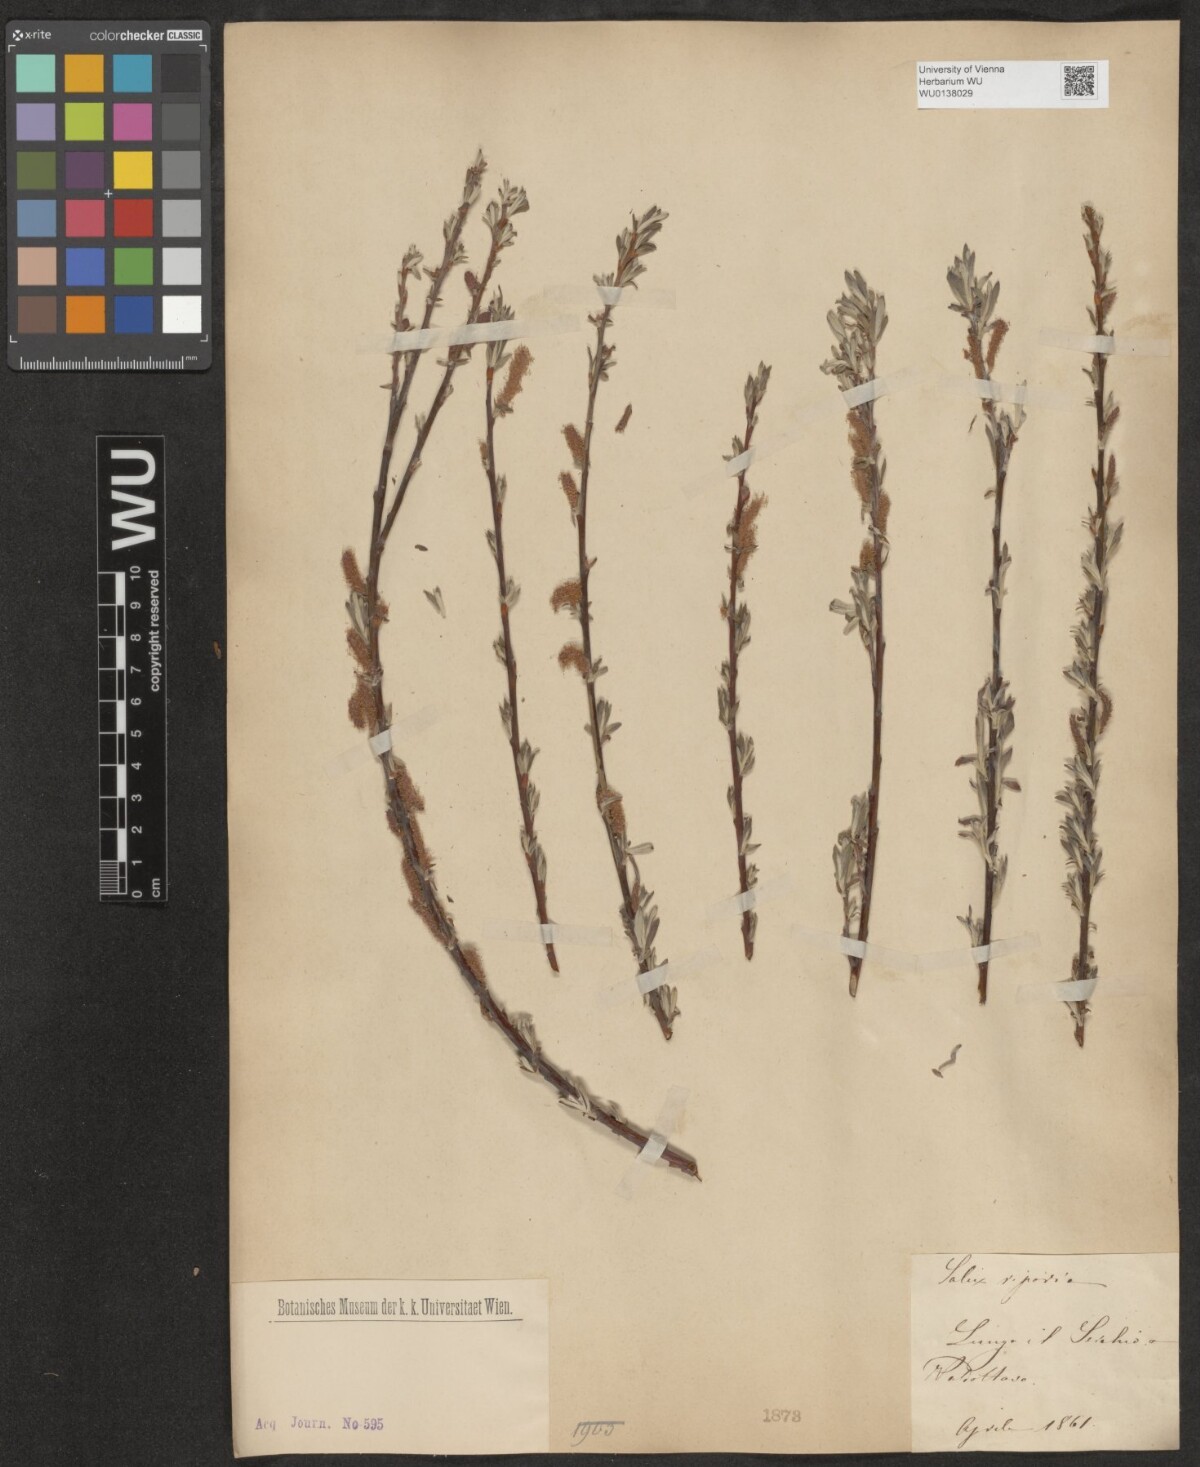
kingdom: Plantae
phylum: Tracheophyta
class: Magnoliopsida
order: Malpighiales
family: Salicaceae
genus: Salix
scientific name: Salix eleagnos
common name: Elaeagnus willow
